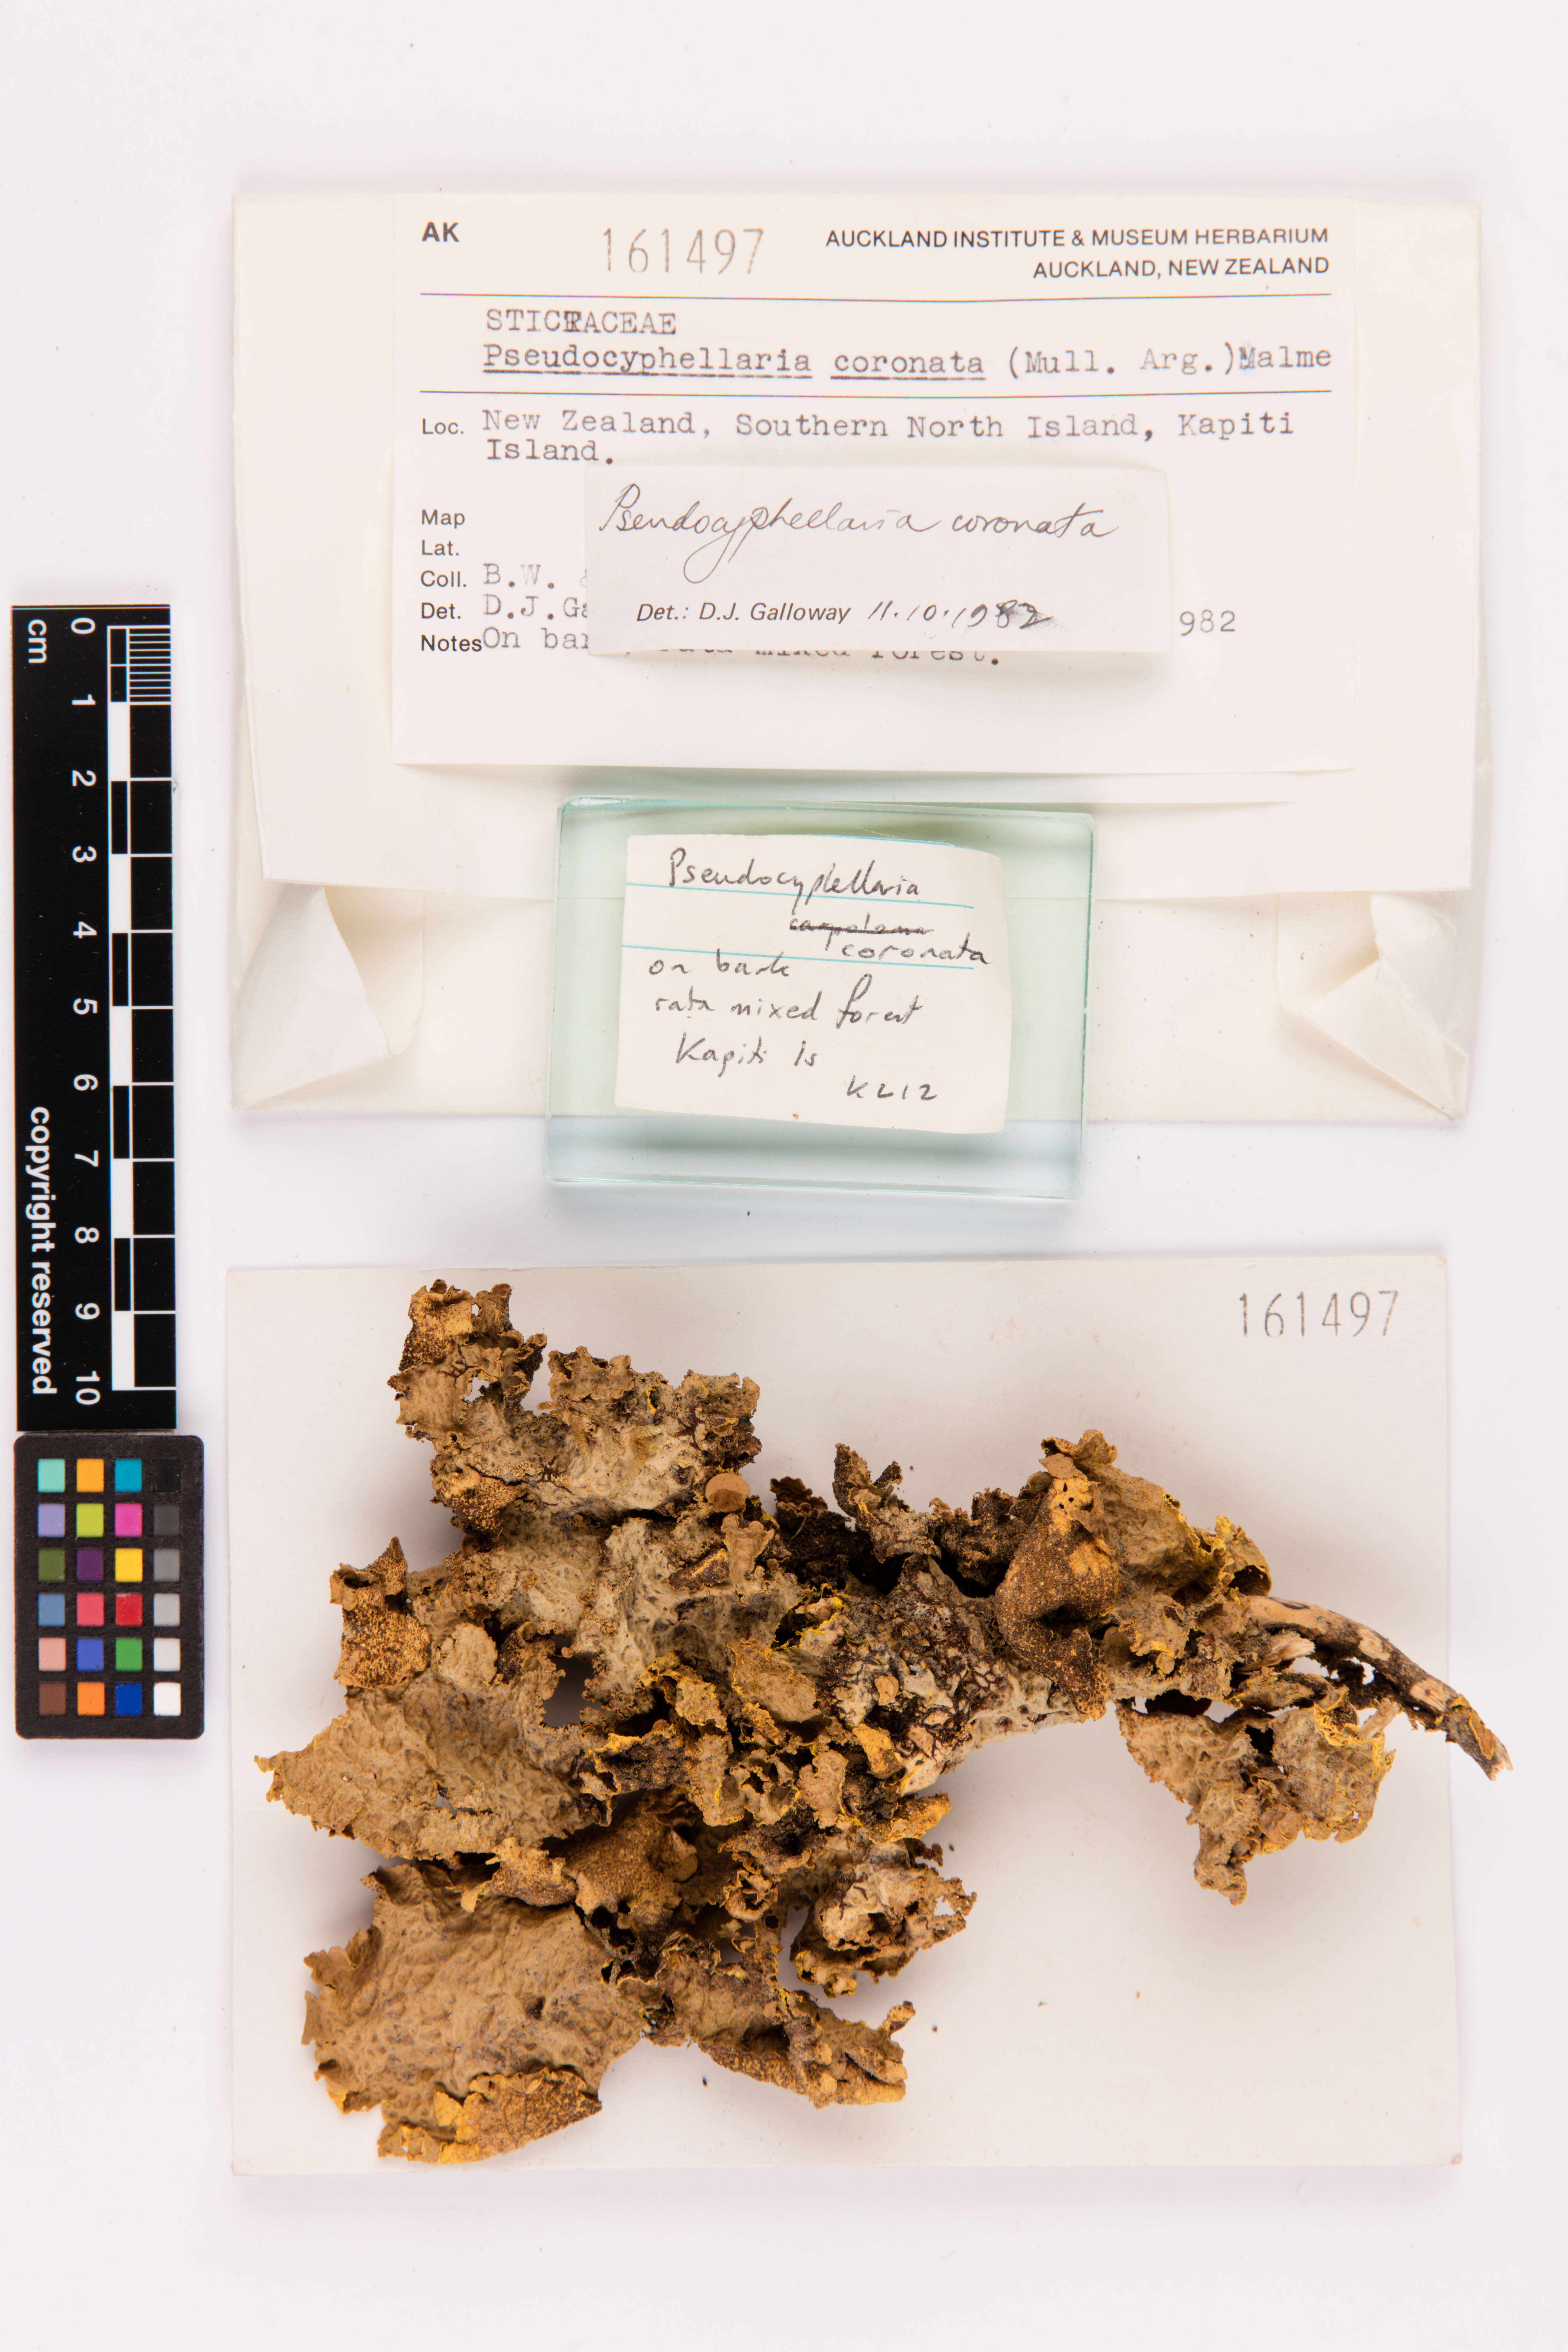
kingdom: Fungi
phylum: Ascomycota
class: Lecanoromycetes
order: Peltigerales
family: Lobariaceae
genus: Yarrumia
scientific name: Yarrumia coronata
